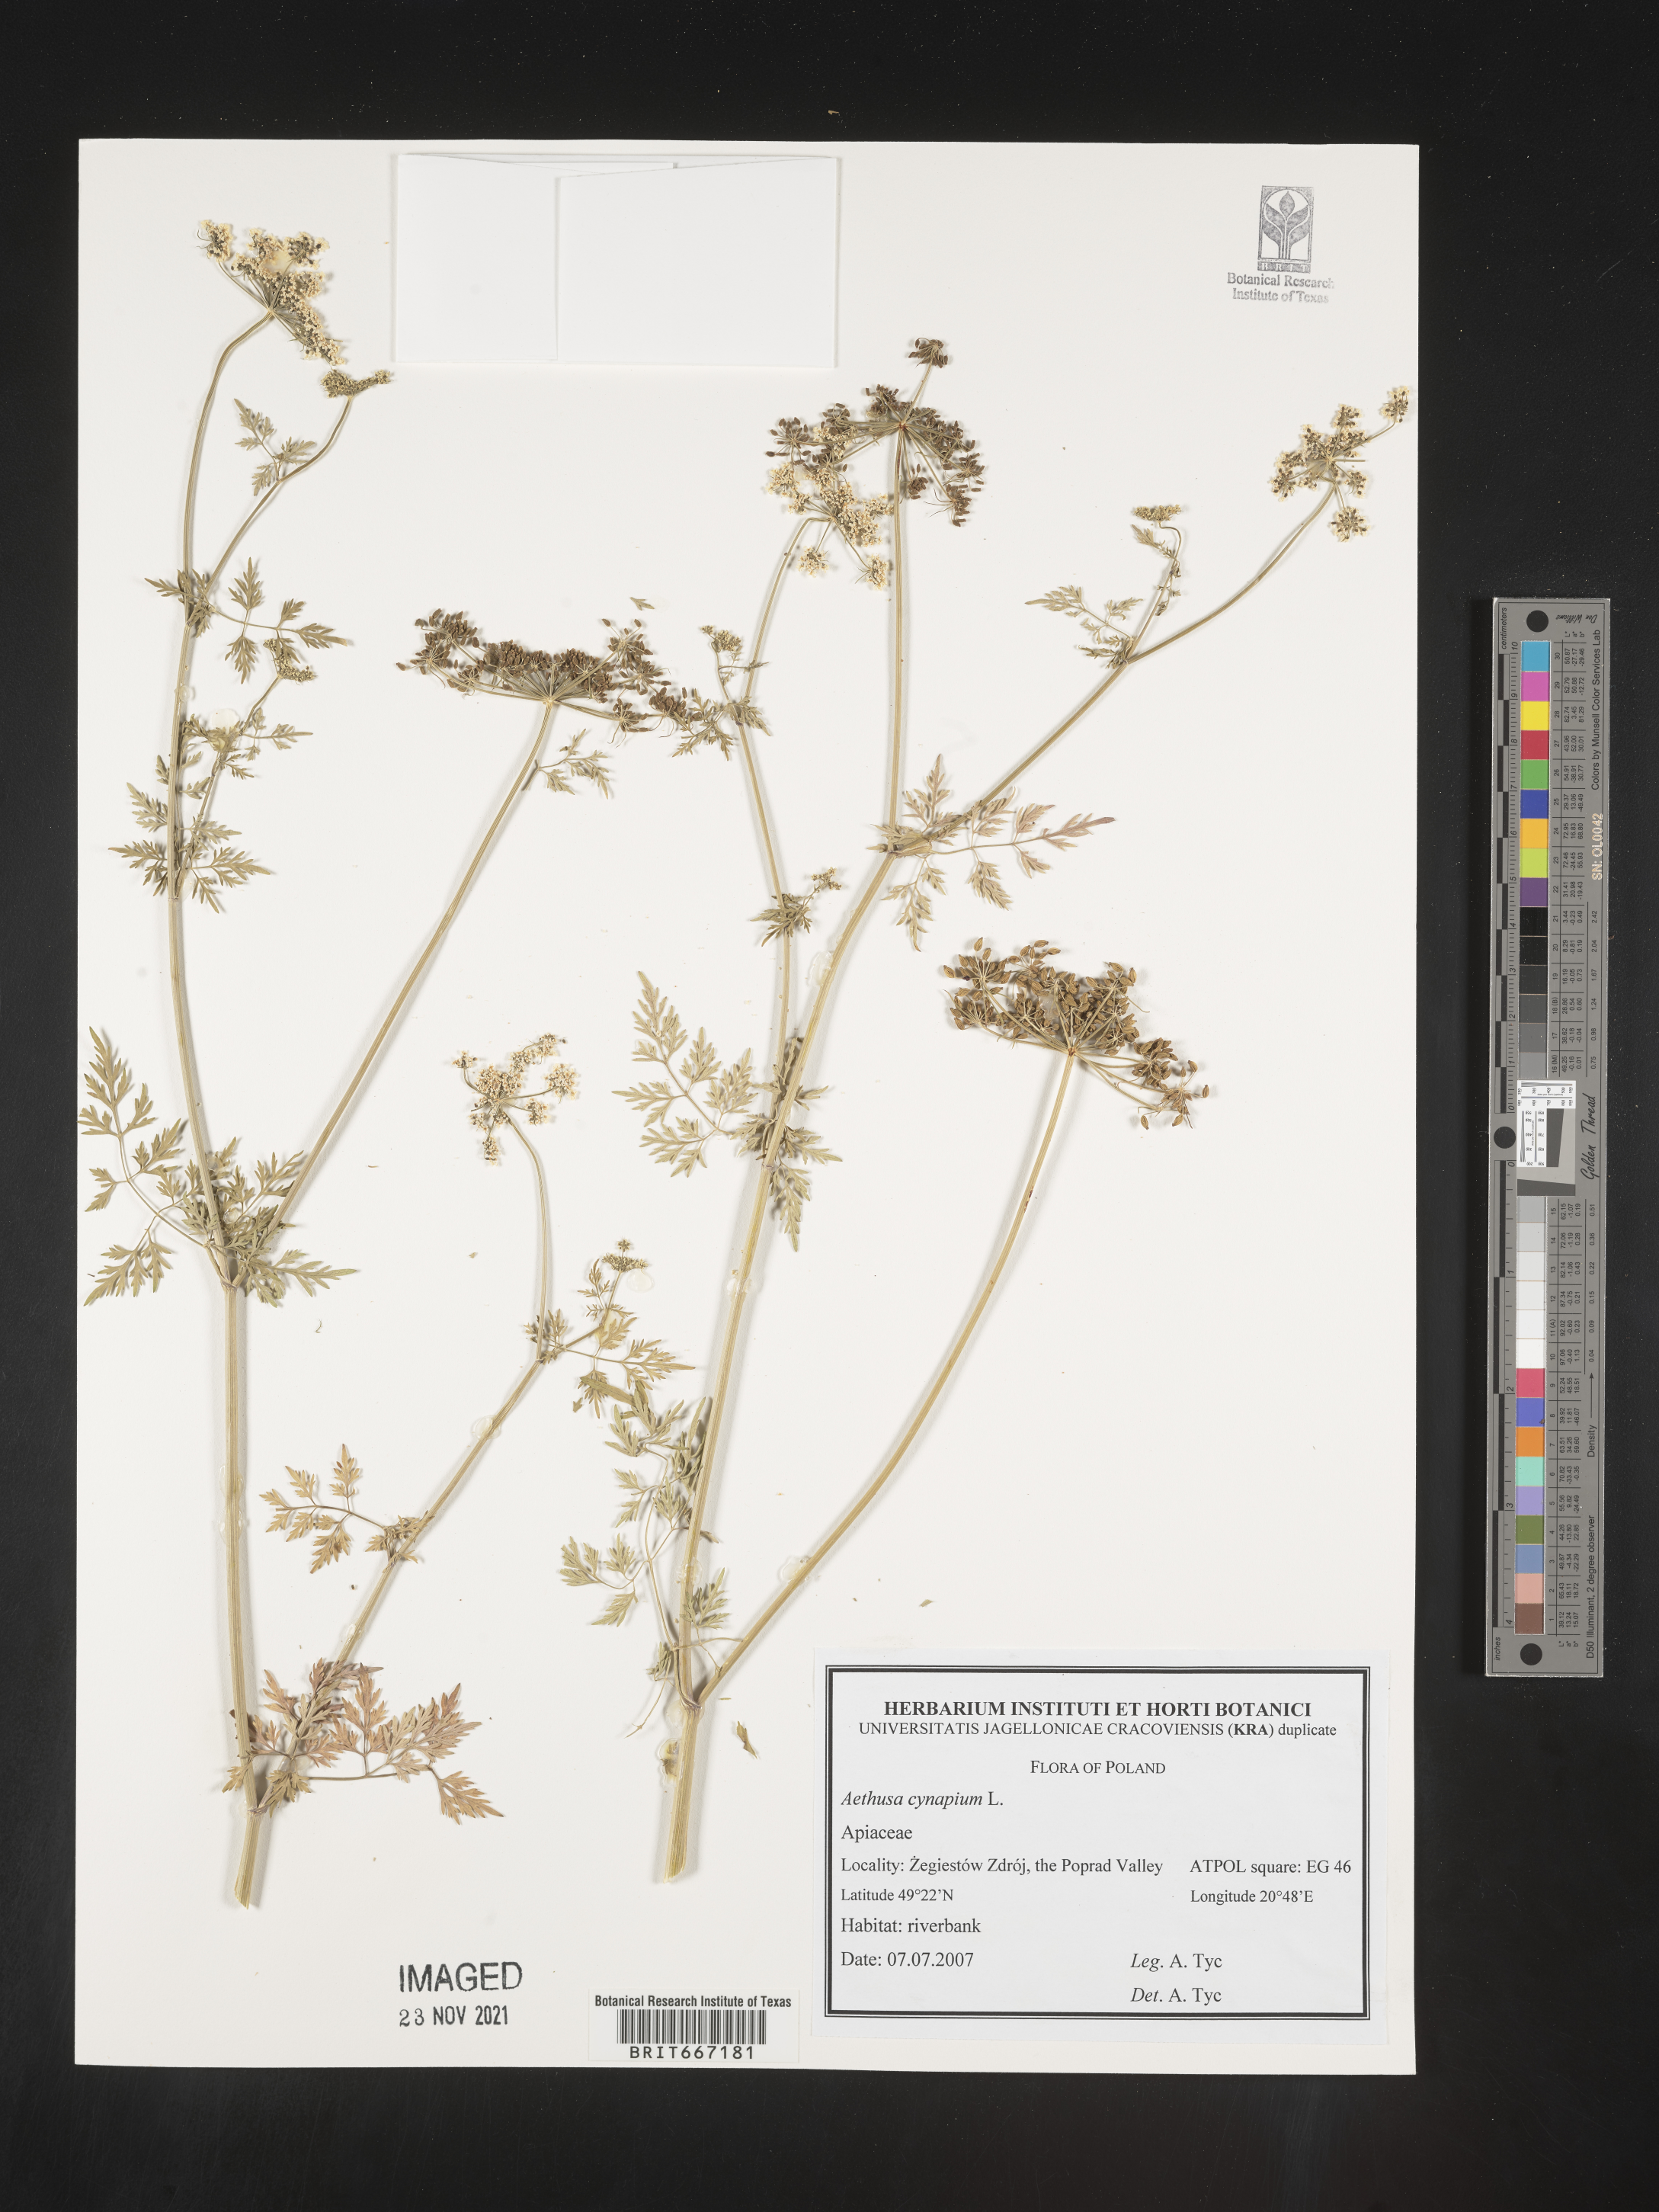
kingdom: Plantae
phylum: Tracheophyta
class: Magnoliopsida
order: Apiales
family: Apiaceae
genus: Aethusa
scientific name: Aethusa
